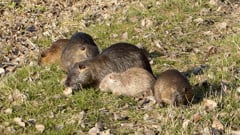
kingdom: Animalia
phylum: Chordata
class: Mammalia
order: Rodentia
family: Myocastoridae
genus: Myocastor
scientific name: Myocastor coypus
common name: Coypu
